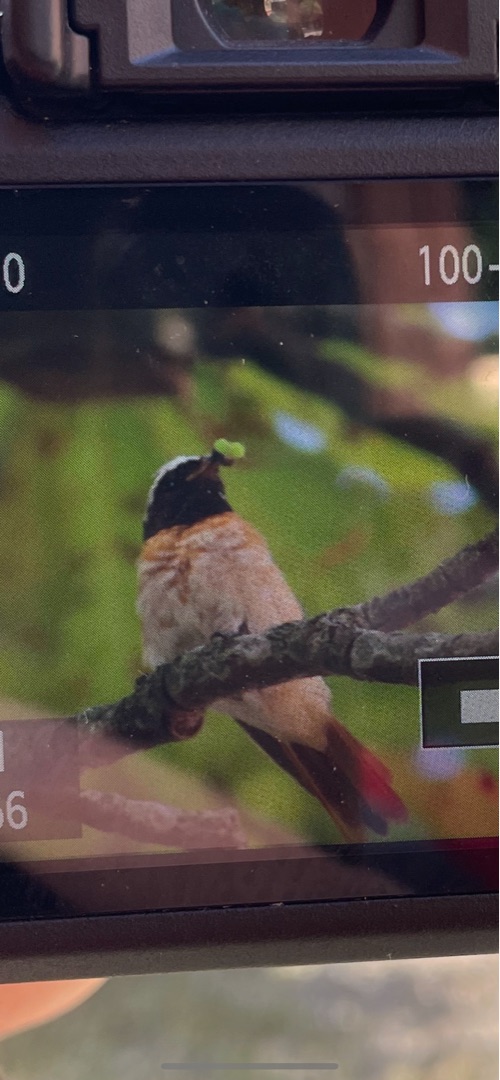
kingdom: Animalia
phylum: Chordata
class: Aves
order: Passeriformes
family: Muscicapidae
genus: Phoenicurus
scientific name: Phoenicurus phoenicurus
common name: Rødstjert
